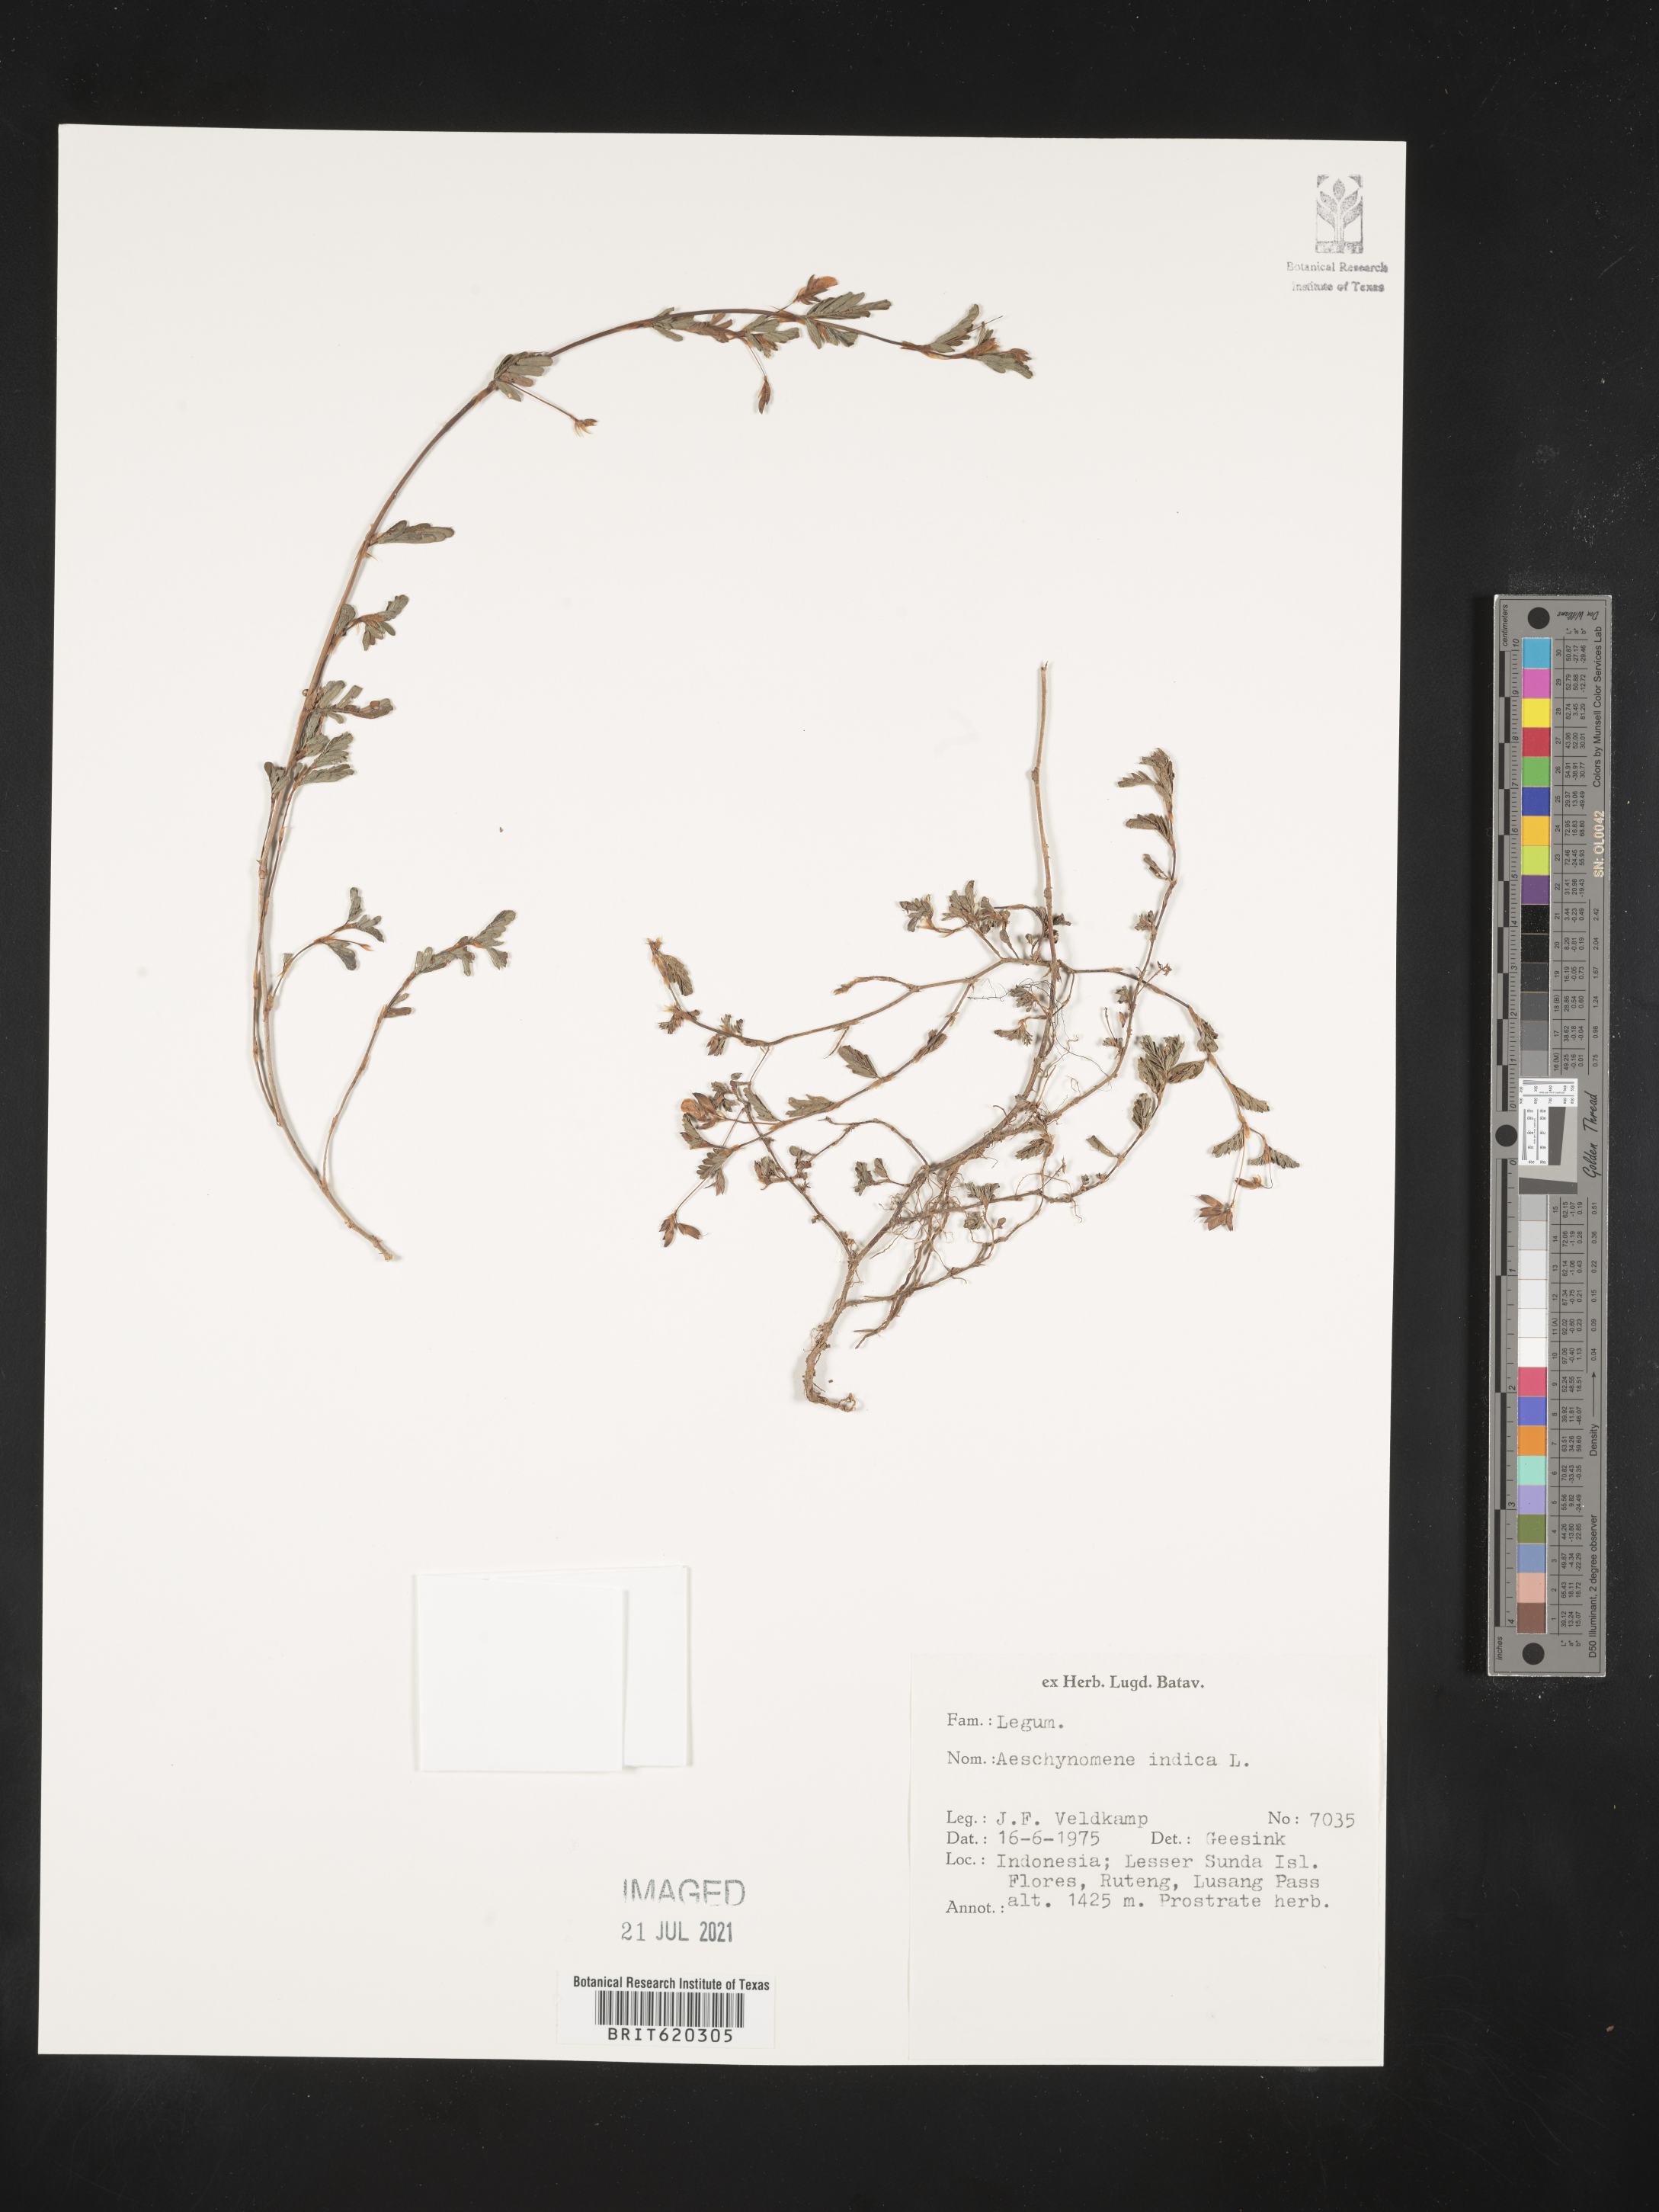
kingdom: Plantae
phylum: Tracheophyta
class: Magnoliopsida
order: Fabales
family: Fabaceae
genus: Aeschynomene
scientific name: Aeschynomene indica
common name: Indian jointvetch
